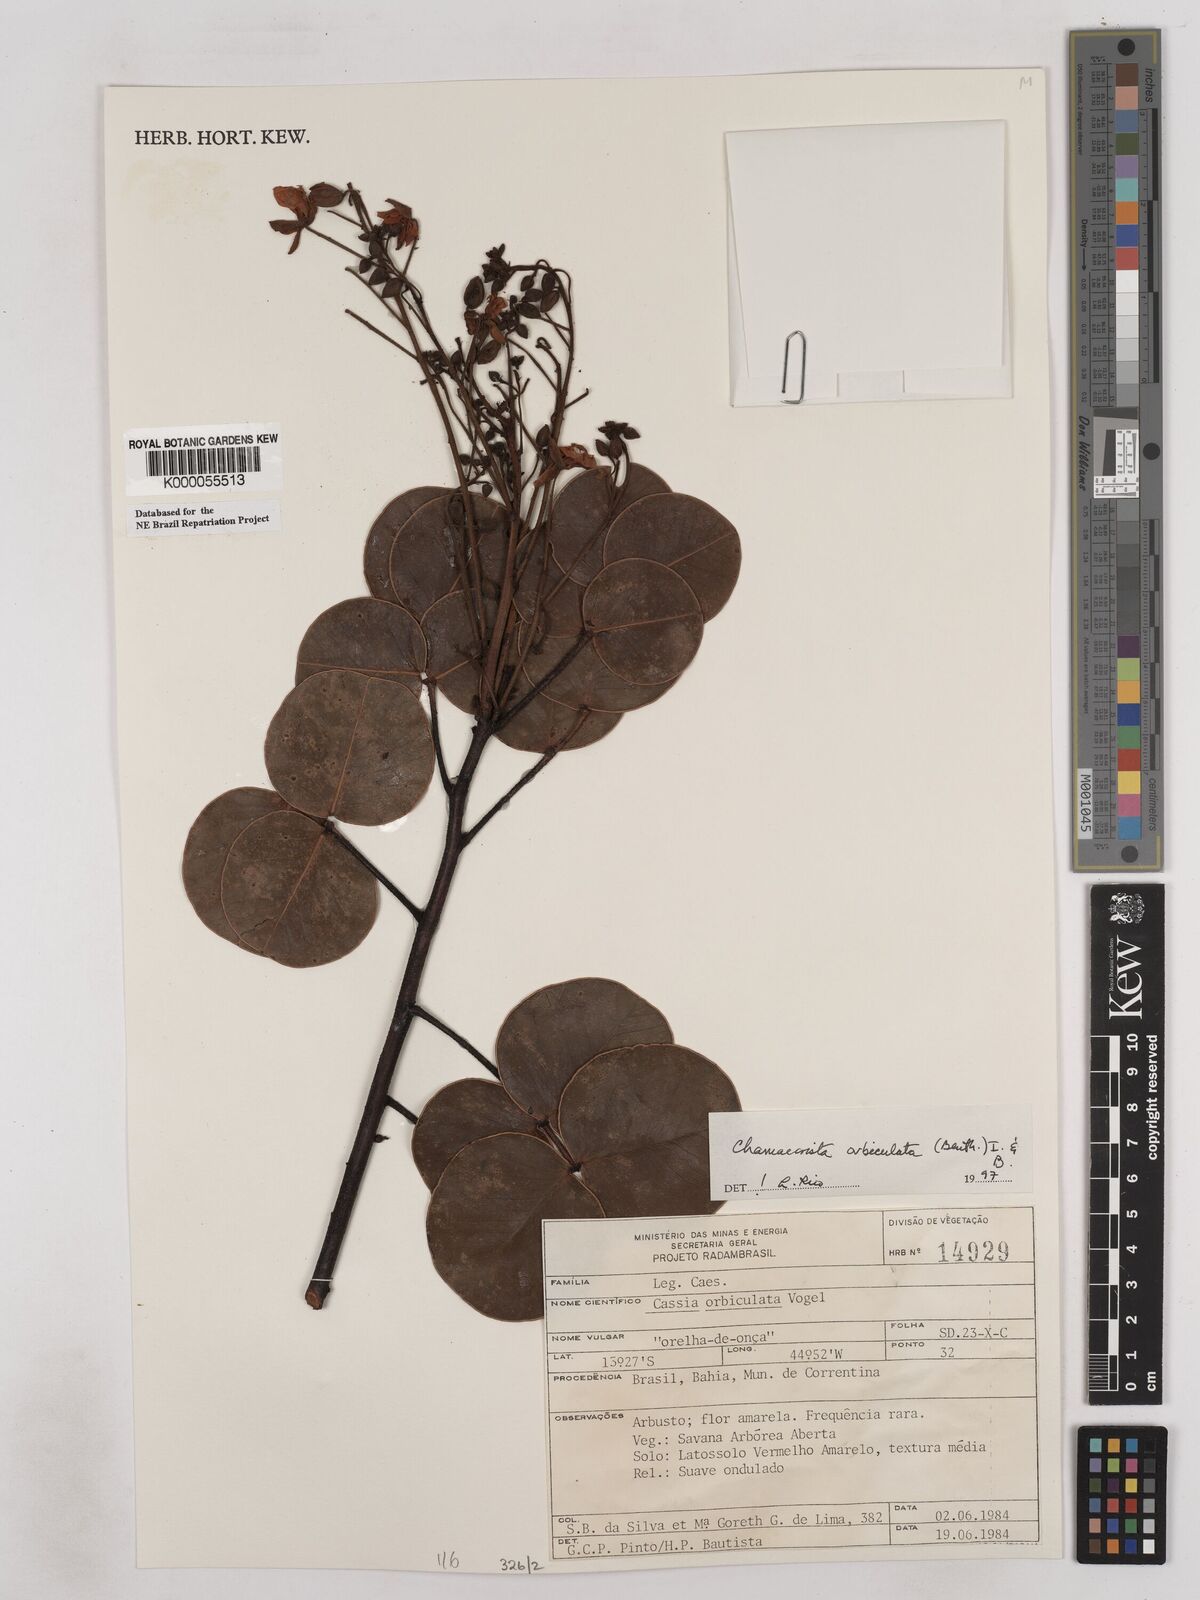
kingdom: Plantae
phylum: Tracheophyta
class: Magnoliopsida
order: Fabales
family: Fabaceae
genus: Chamaecrista
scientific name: Chamaecrista orbiculata
